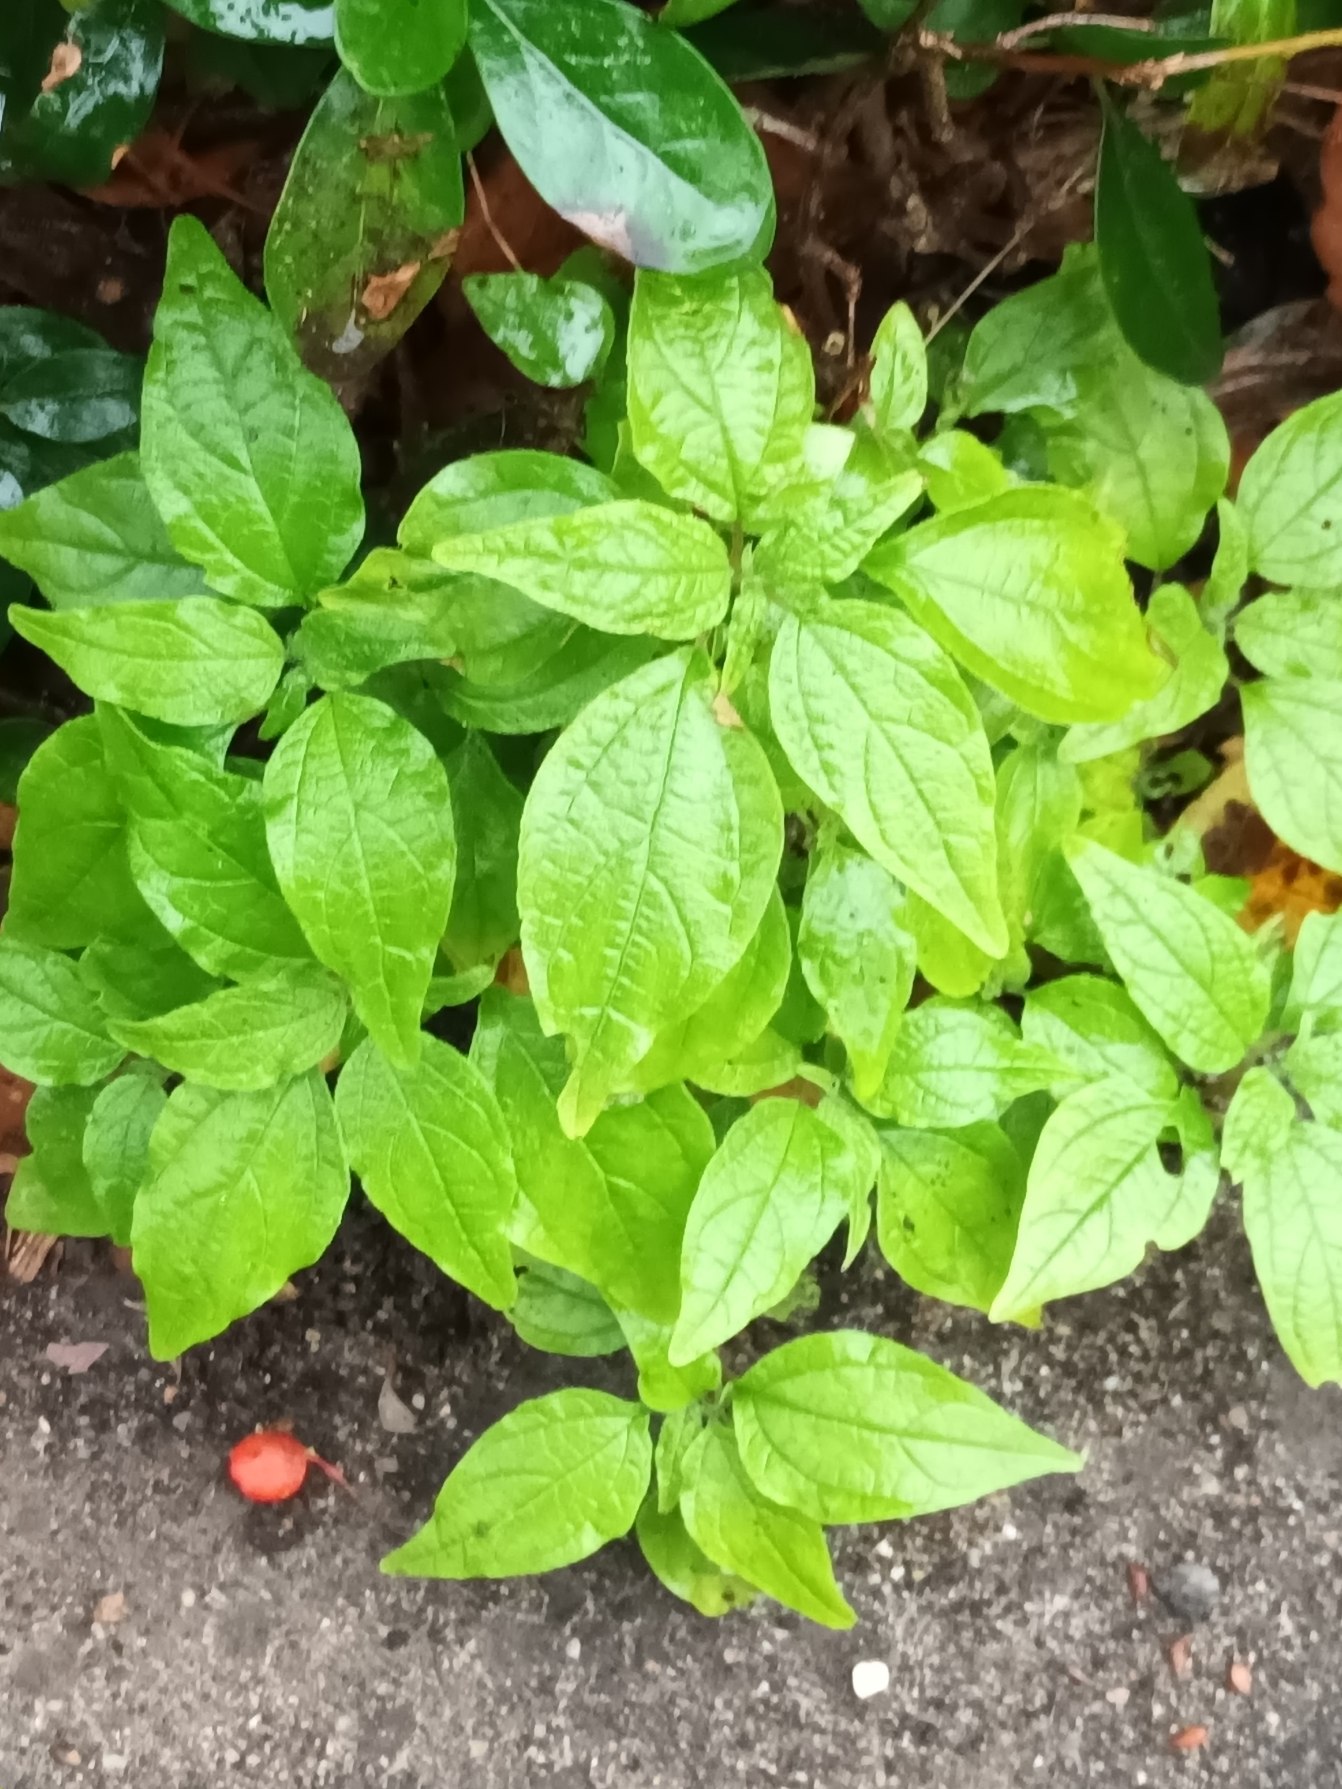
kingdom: Plantae
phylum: Tracheophyta
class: Magnoliopsida
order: Rosales
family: Urticaceae
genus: Parietaria
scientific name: Parietaria officinalis
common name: Almindelig springknap
